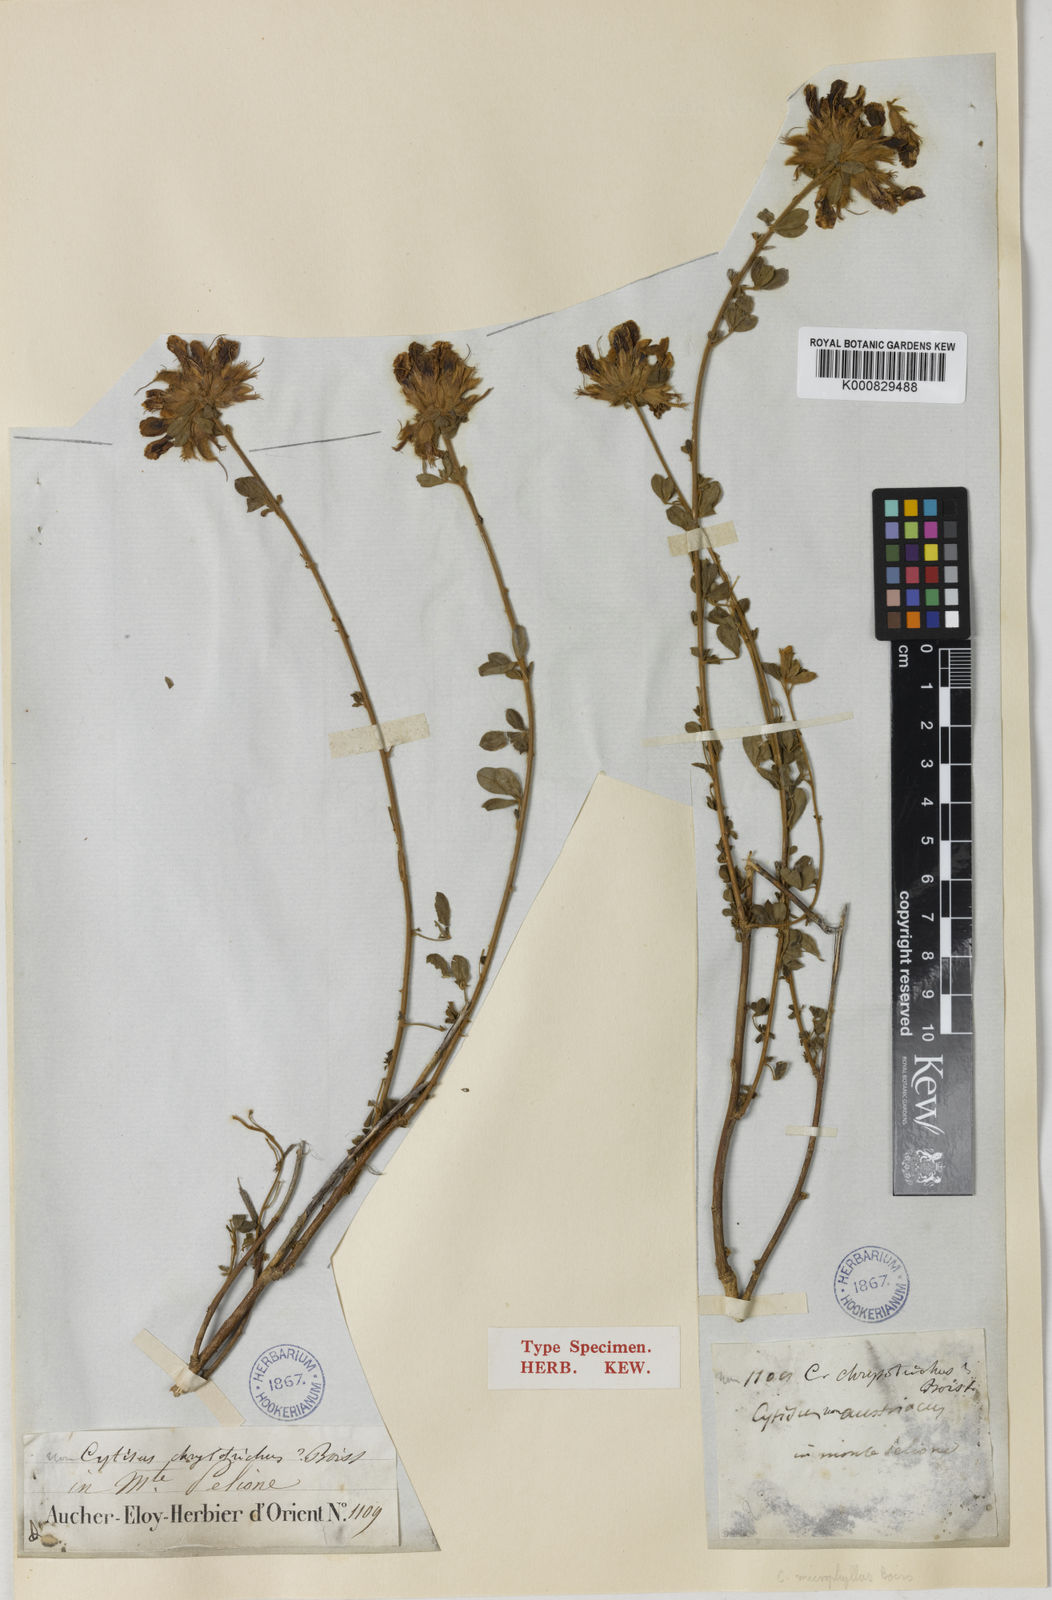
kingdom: Plantae
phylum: Tracheophyta
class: Magnoliopsida
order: Fabales
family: Fabaceae
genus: Cytisus
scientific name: Cytisus
